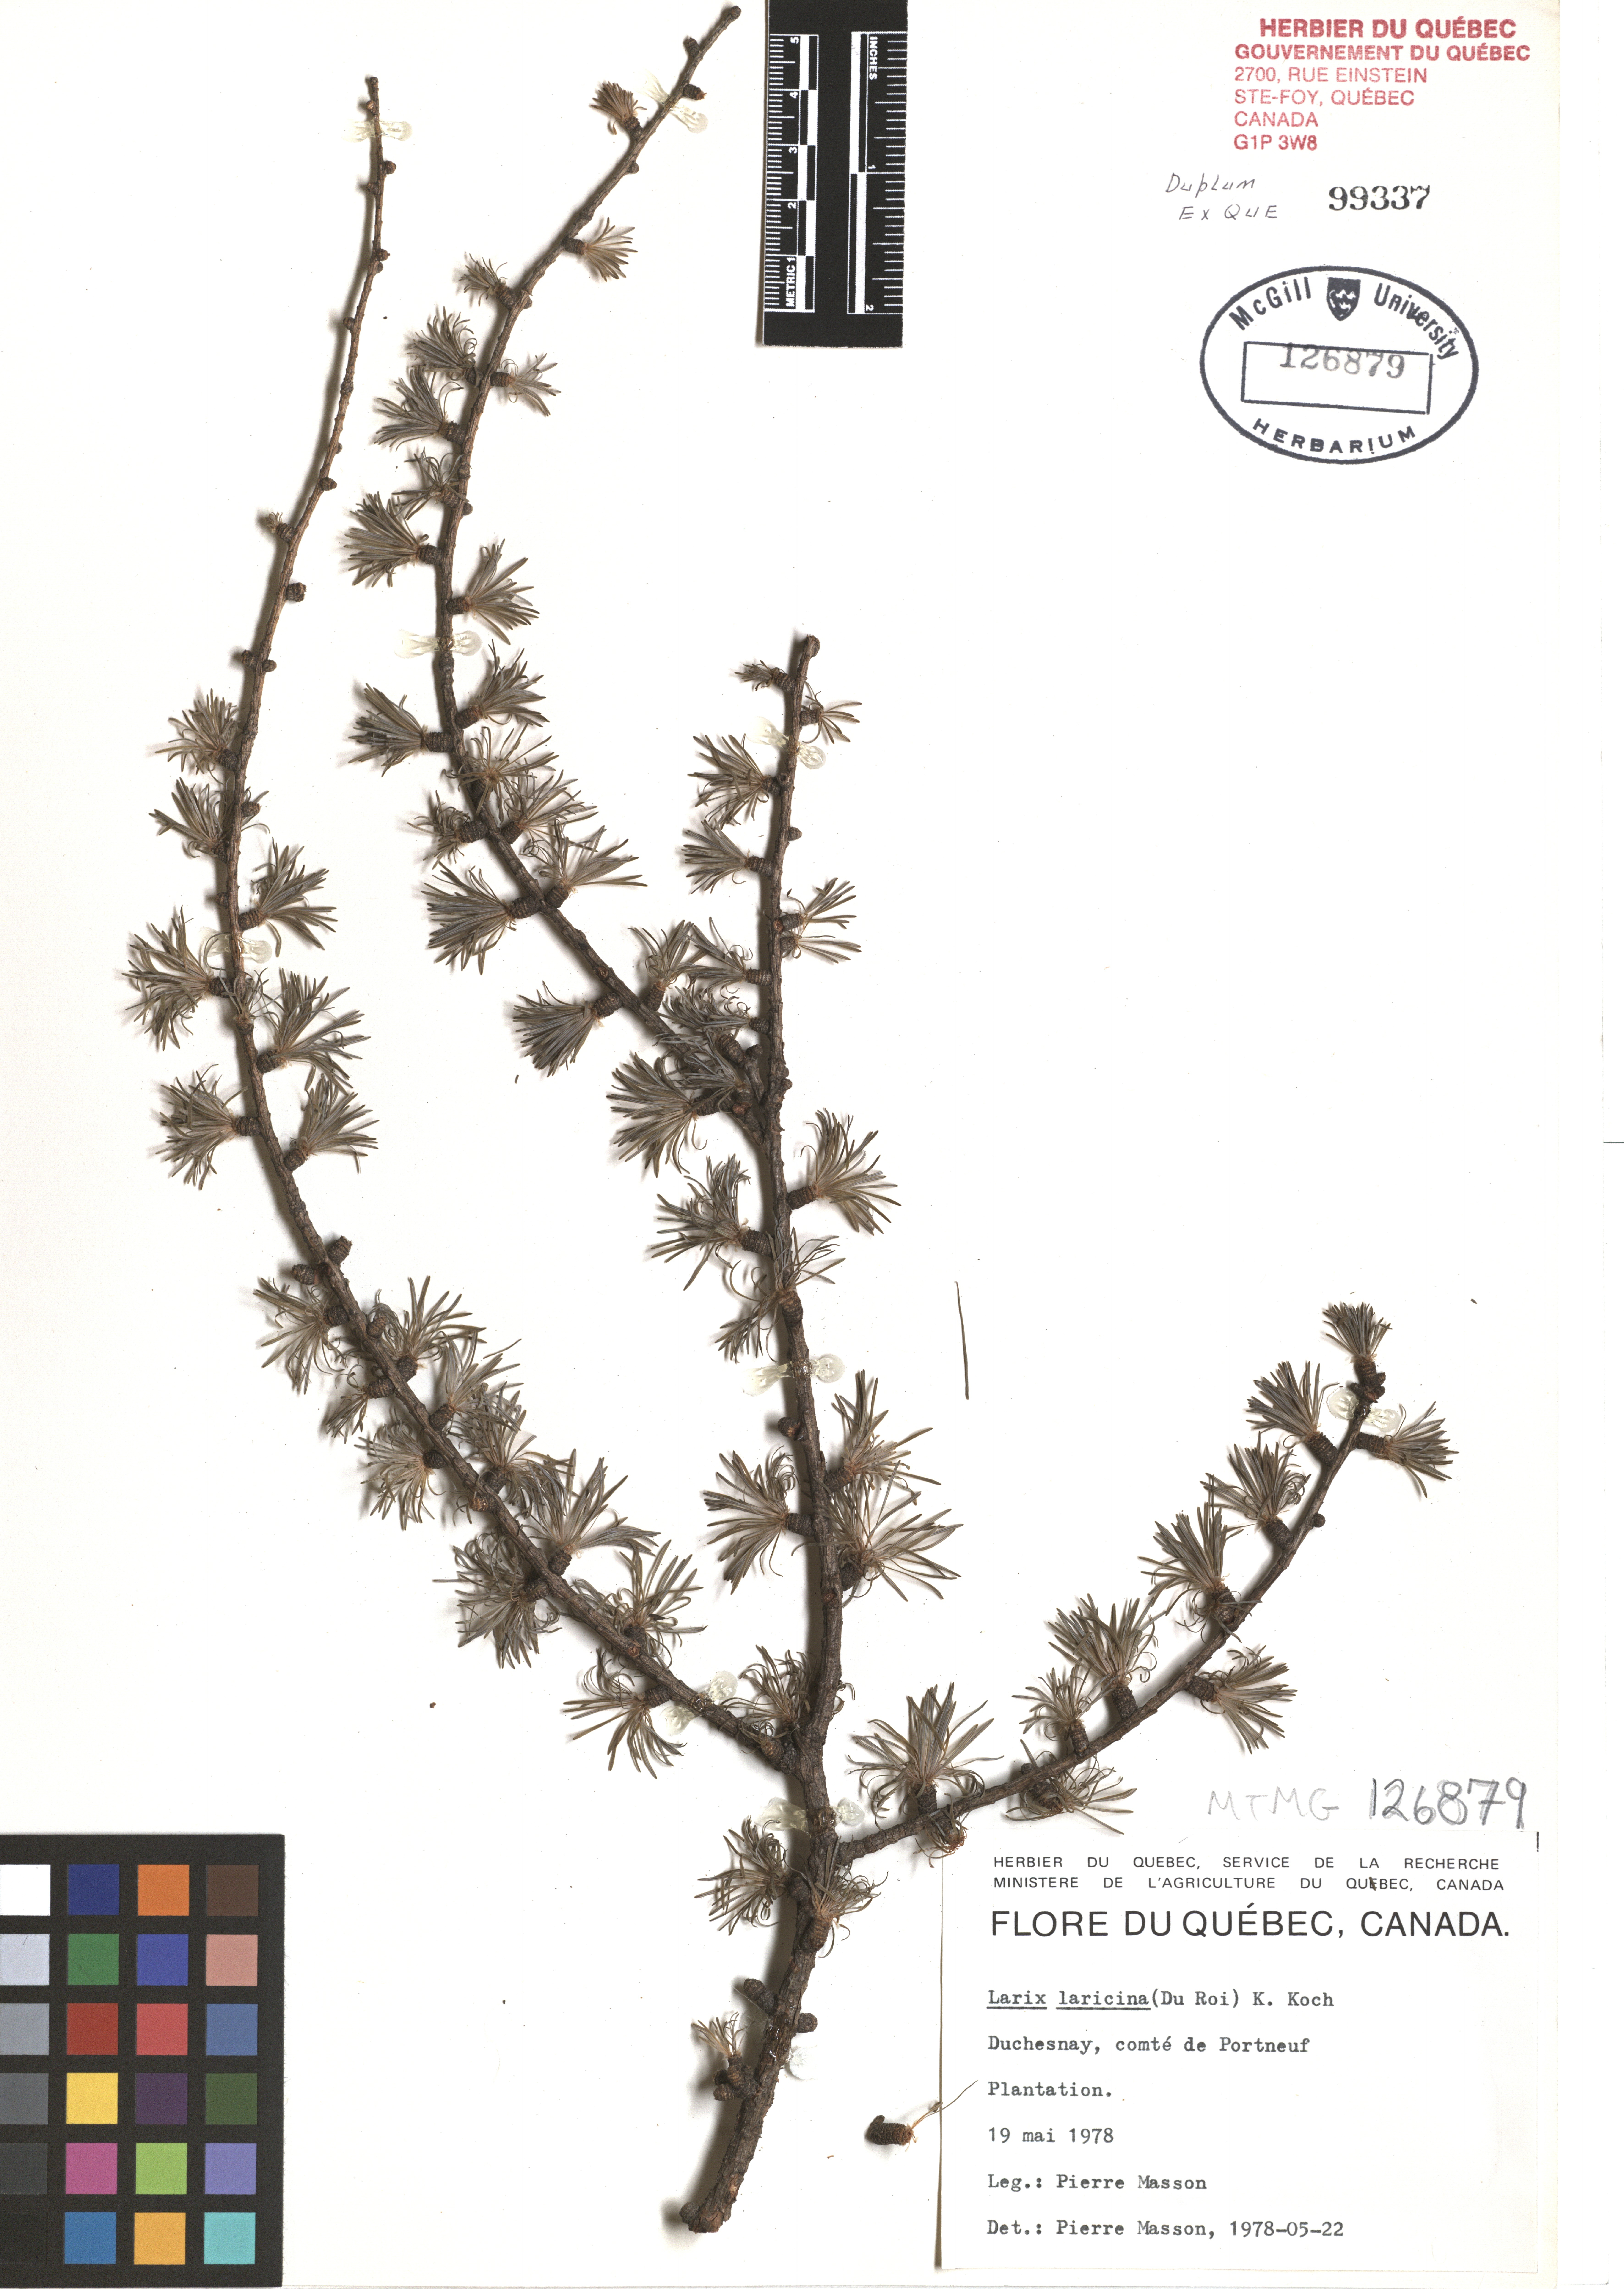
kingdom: Plantae
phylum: Tracheophyta
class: Pinopsida
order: Pinales
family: Pinaceae
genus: Larix
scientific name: Larix laricina
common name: American larch
